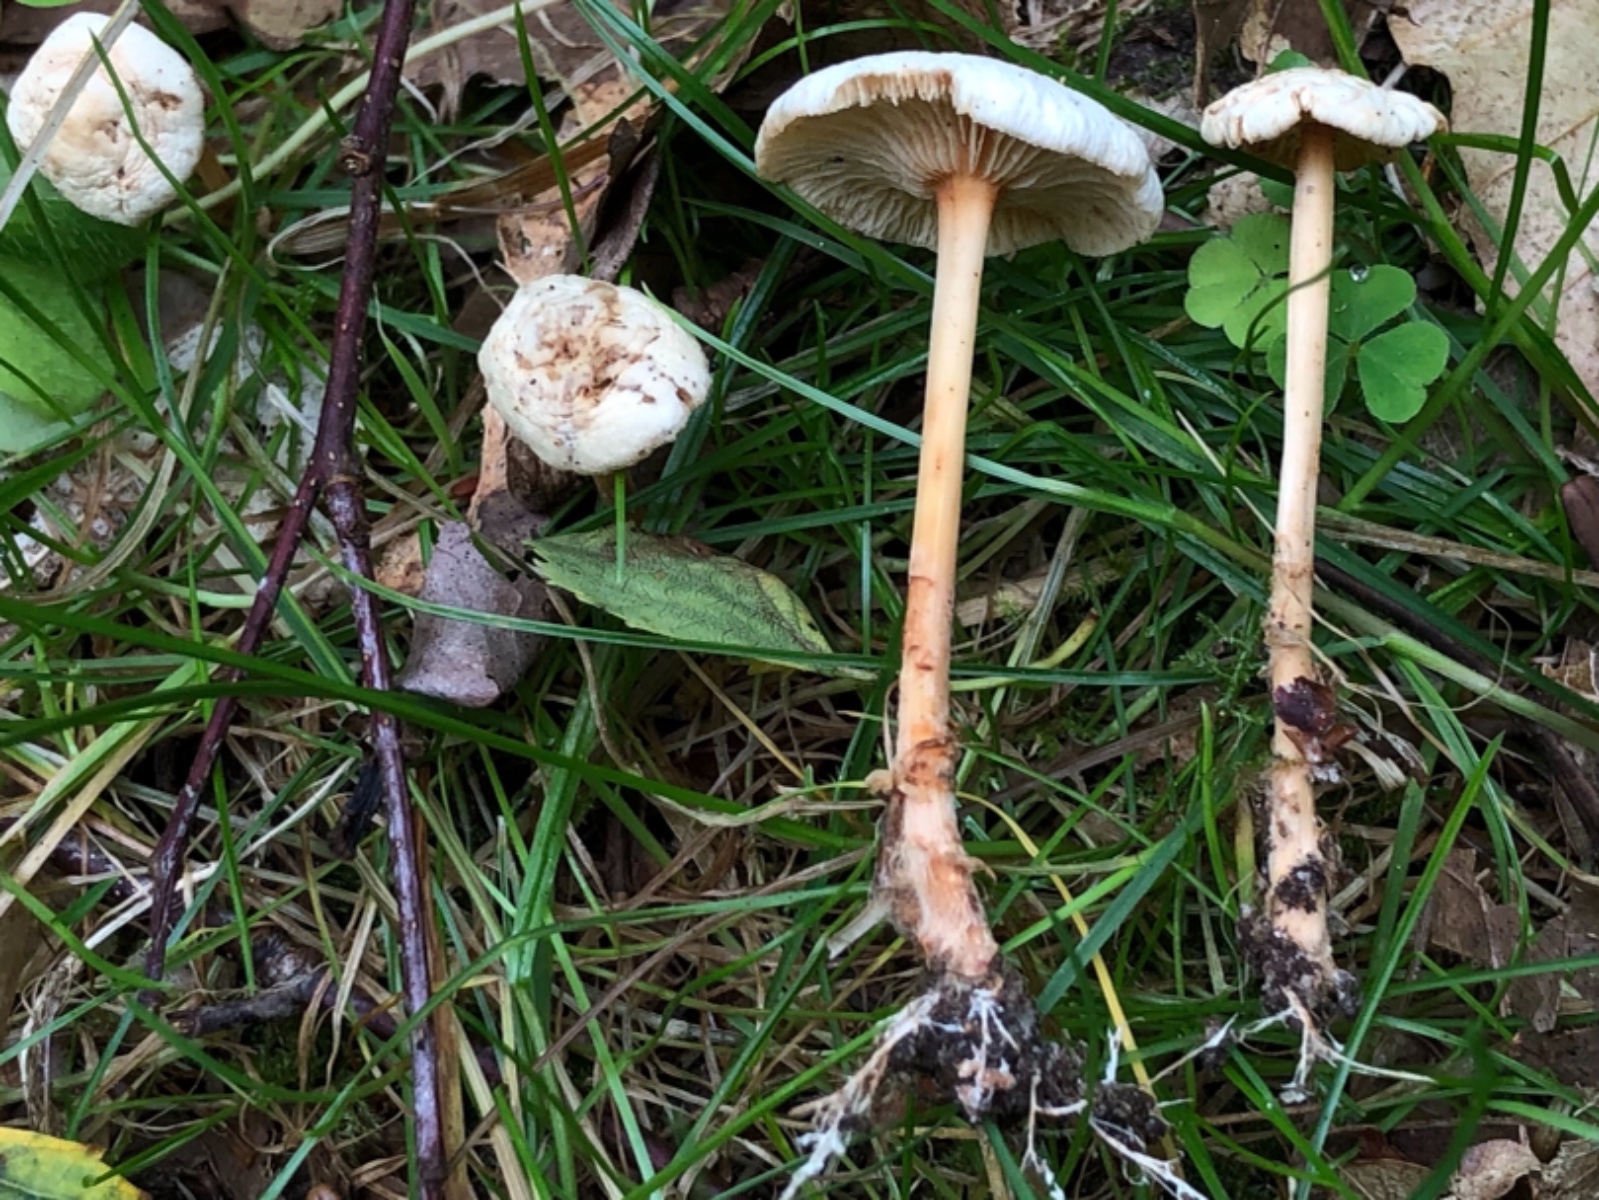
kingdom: Fungi
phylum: Basidiomycota
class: Agaricomycetes
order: Agaricales
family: Omphalotaceae
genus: Gymnopus
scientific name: Gymnopus dryophilus
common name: løv-fladhat
